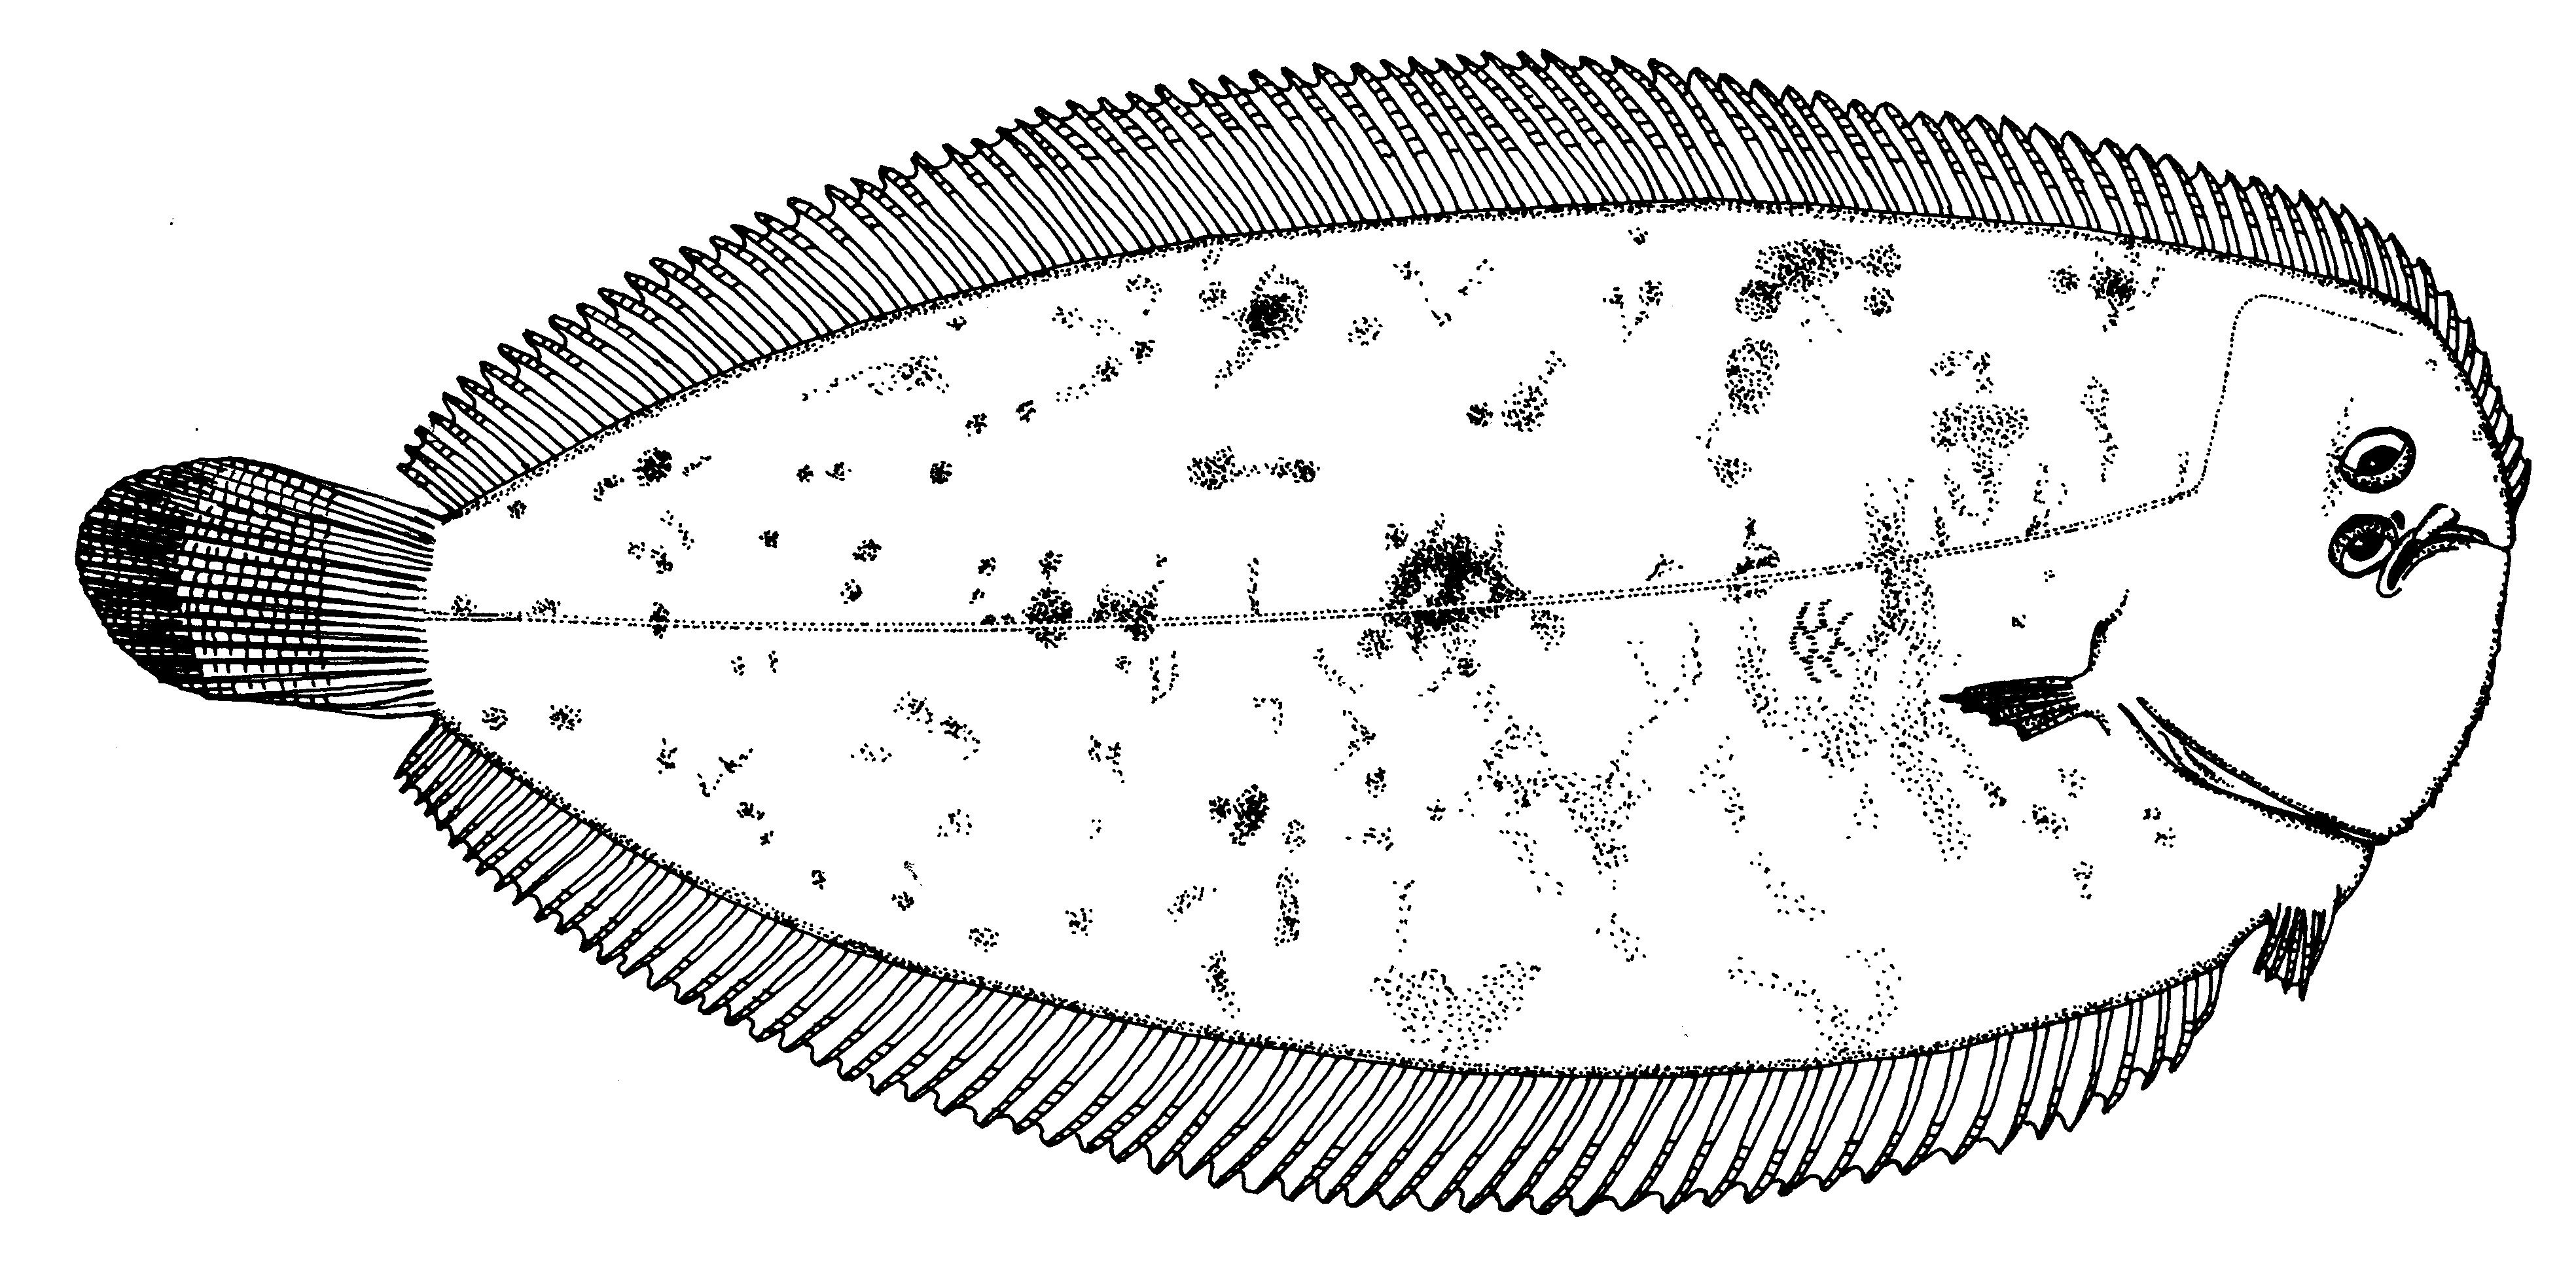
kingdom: Animalia
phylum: Chordata
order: Pleuronectiformes
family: Soleidae
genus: Bathysolea
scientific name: Bathysolea lagarderae
